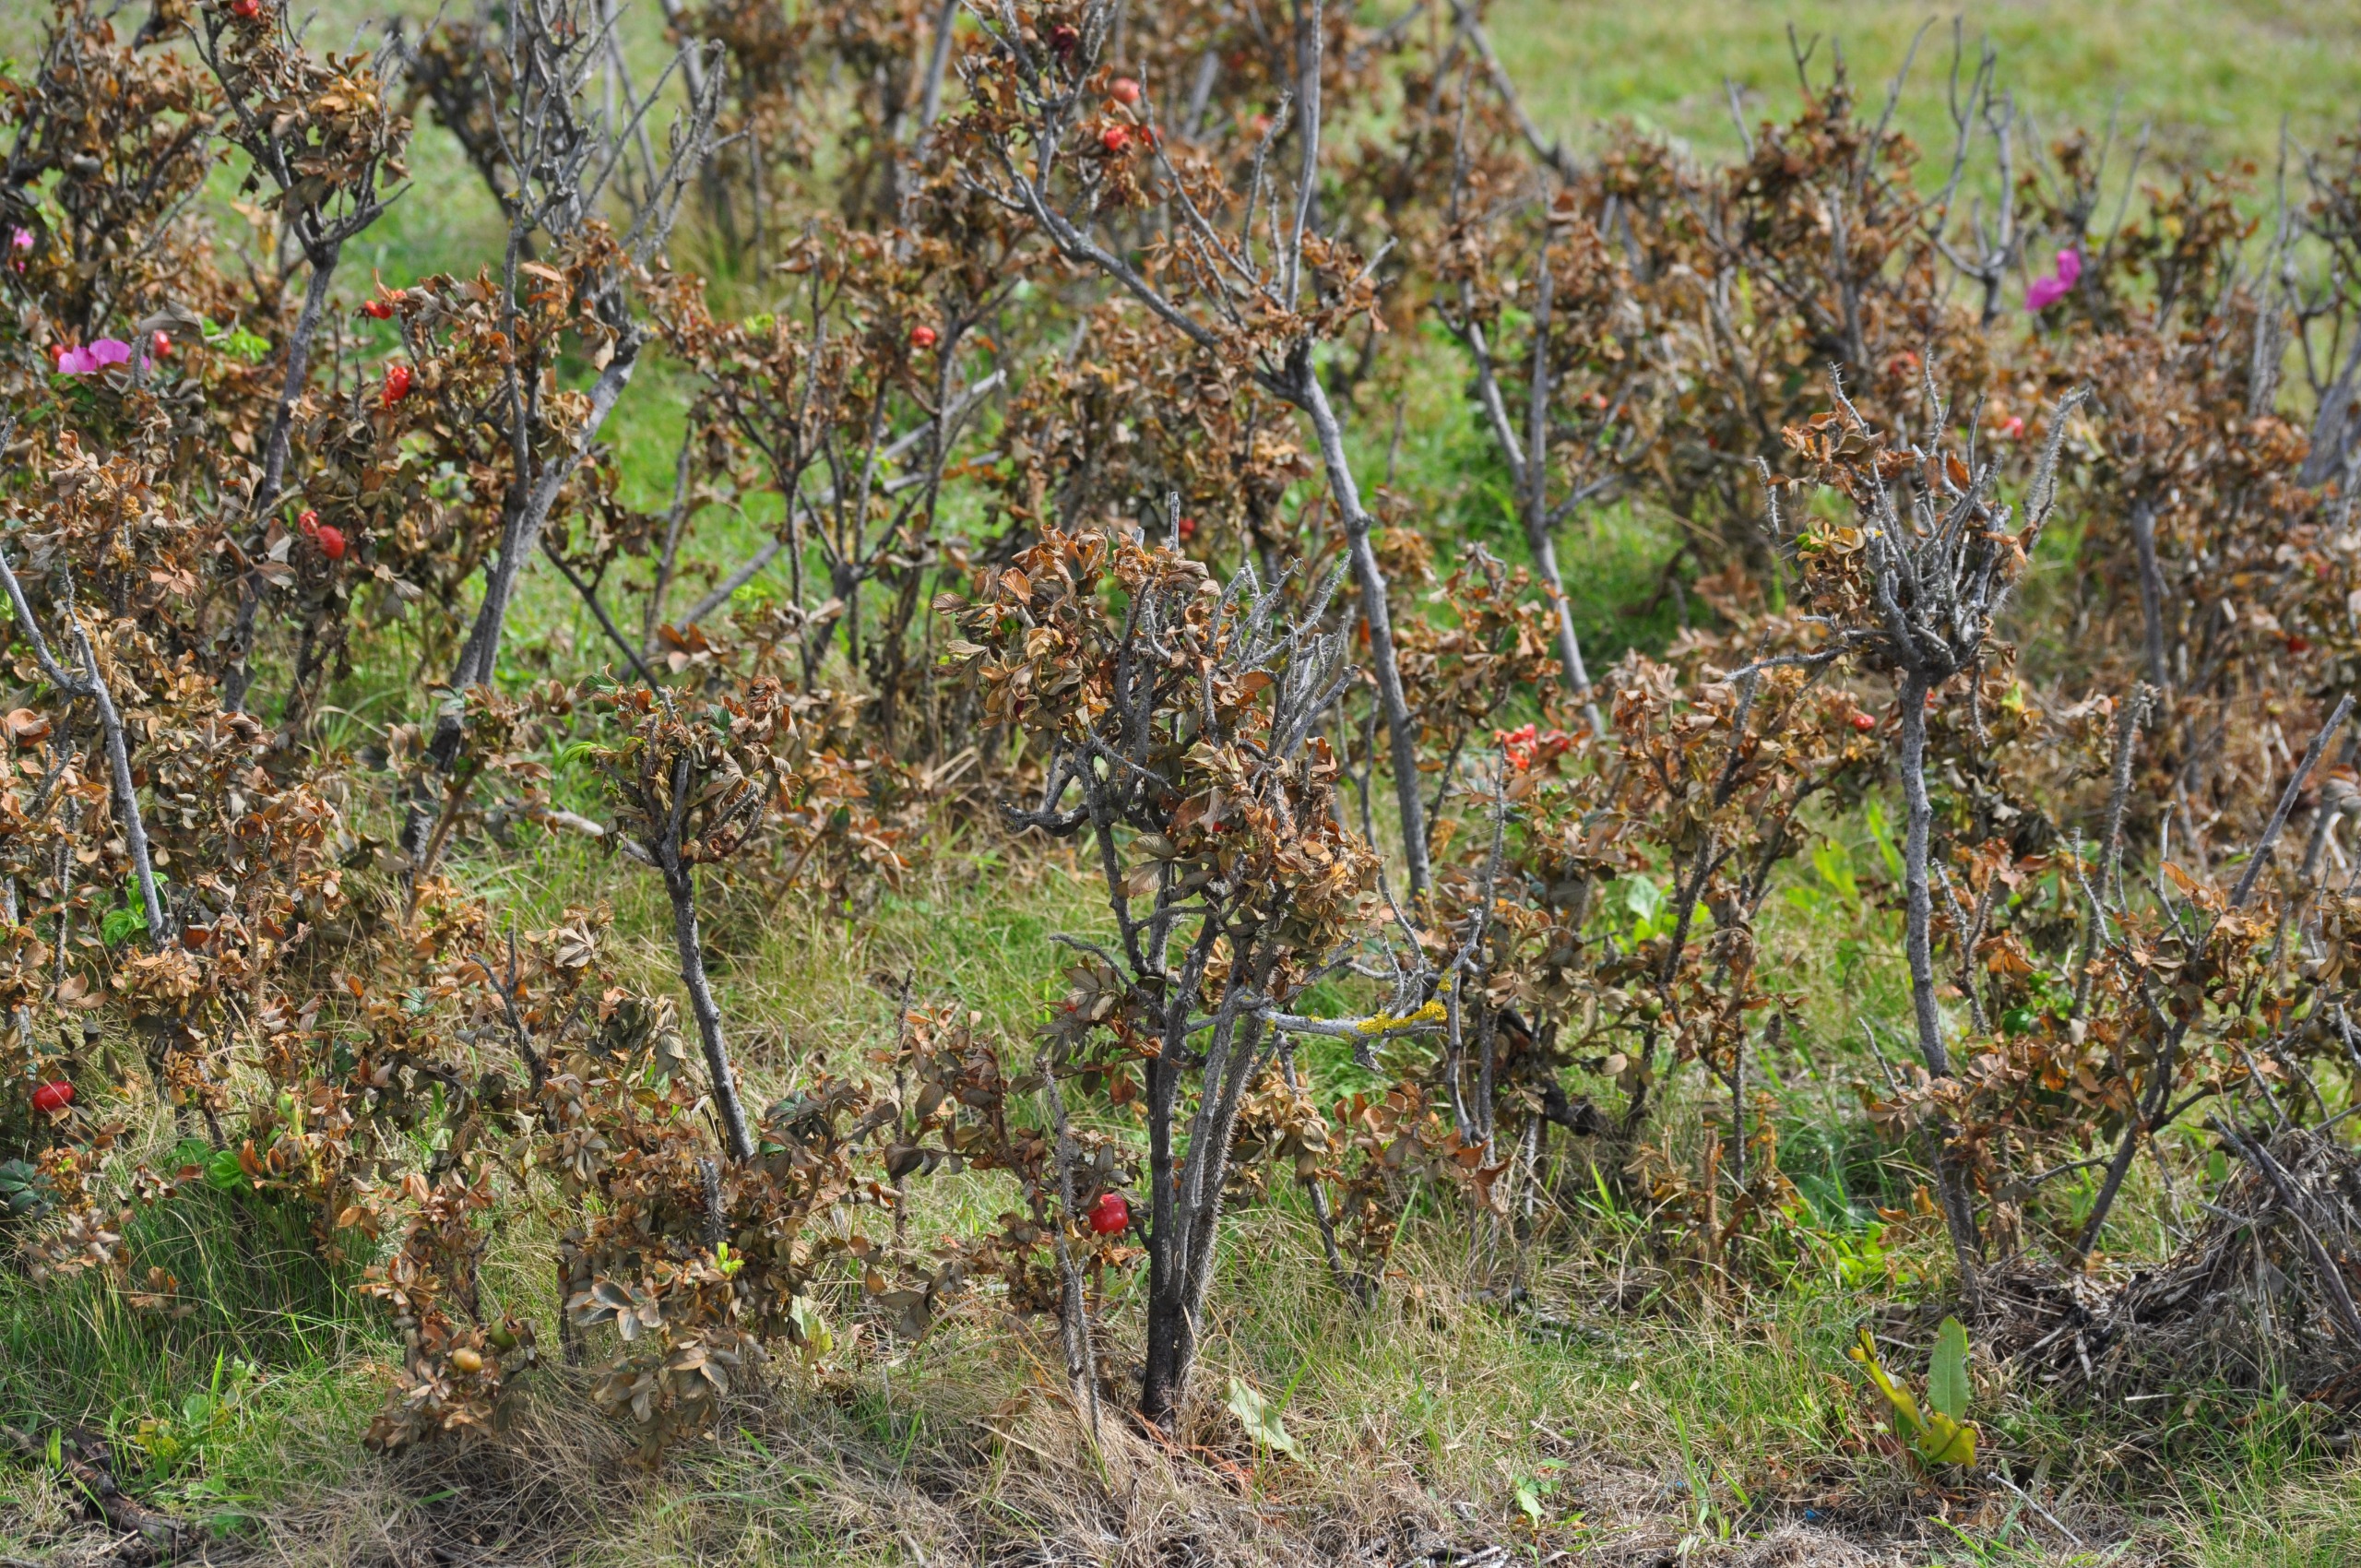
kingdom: Plantae
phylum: Tracheophyta
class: Magnoliopsida
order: Rosales
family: Rosaceae
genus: Rosa
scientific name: Rosa rugosa
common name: Rynket rose
